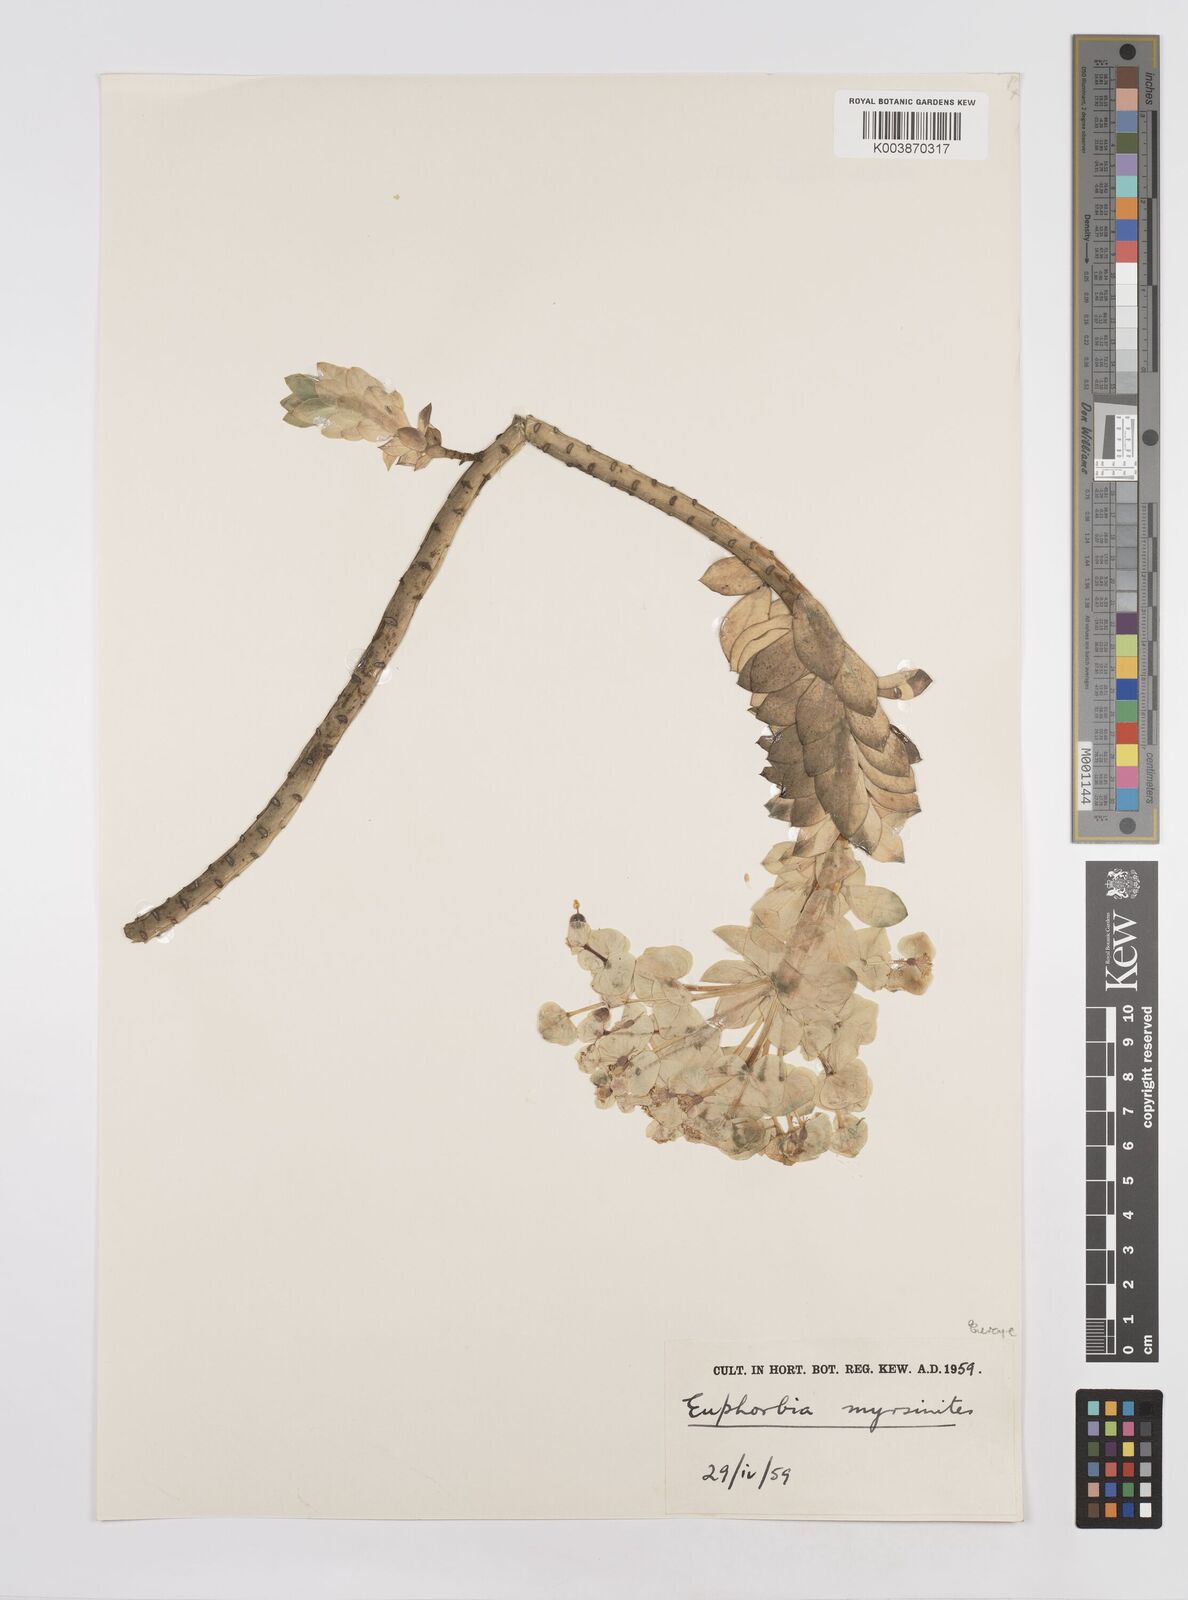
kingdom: Plantae
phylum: Tracheophyta
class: Magnoliopsida
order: Malpighiales
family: Euphorbiaceae
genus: Euphorbia
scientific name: Euphorbia myrsinites
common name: Myrtle spurge
